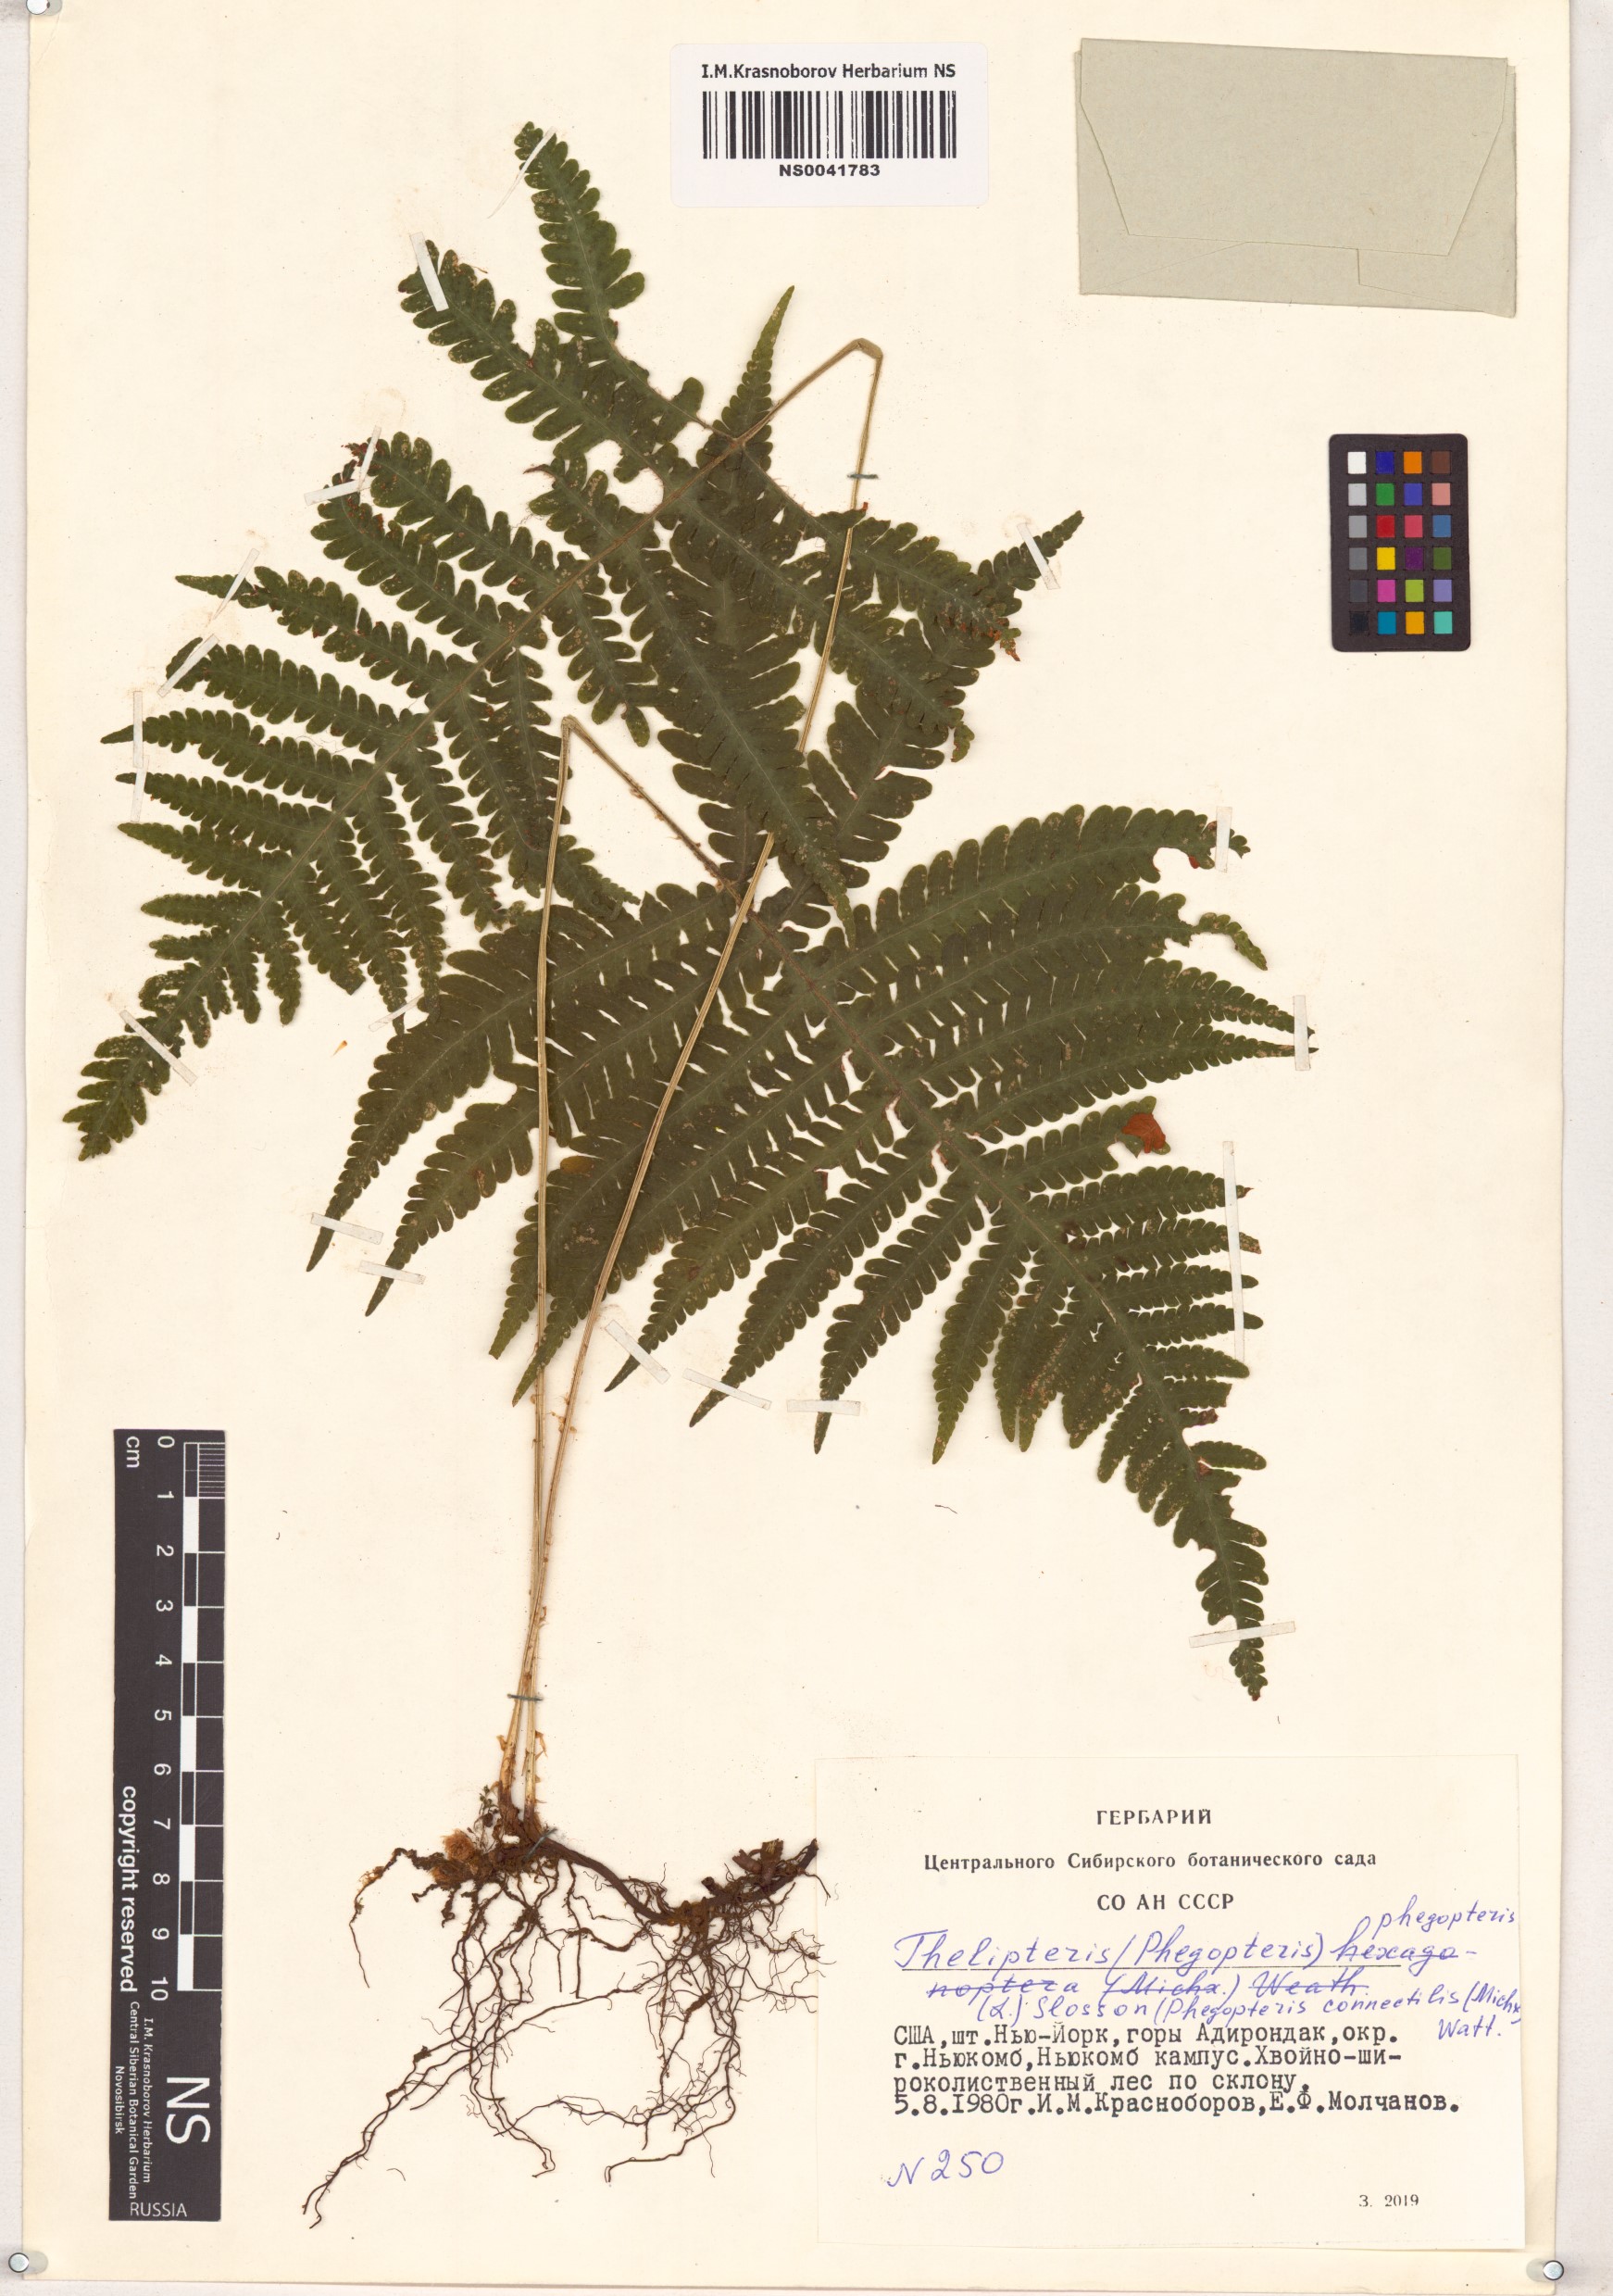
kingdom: Plantae
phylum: Tracheophyta
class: Polypodiopsida
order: Polypodiales
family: Thelypteridaceae
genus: Phegopteris
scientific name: Phegopteris connectilis
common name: Beech fern
